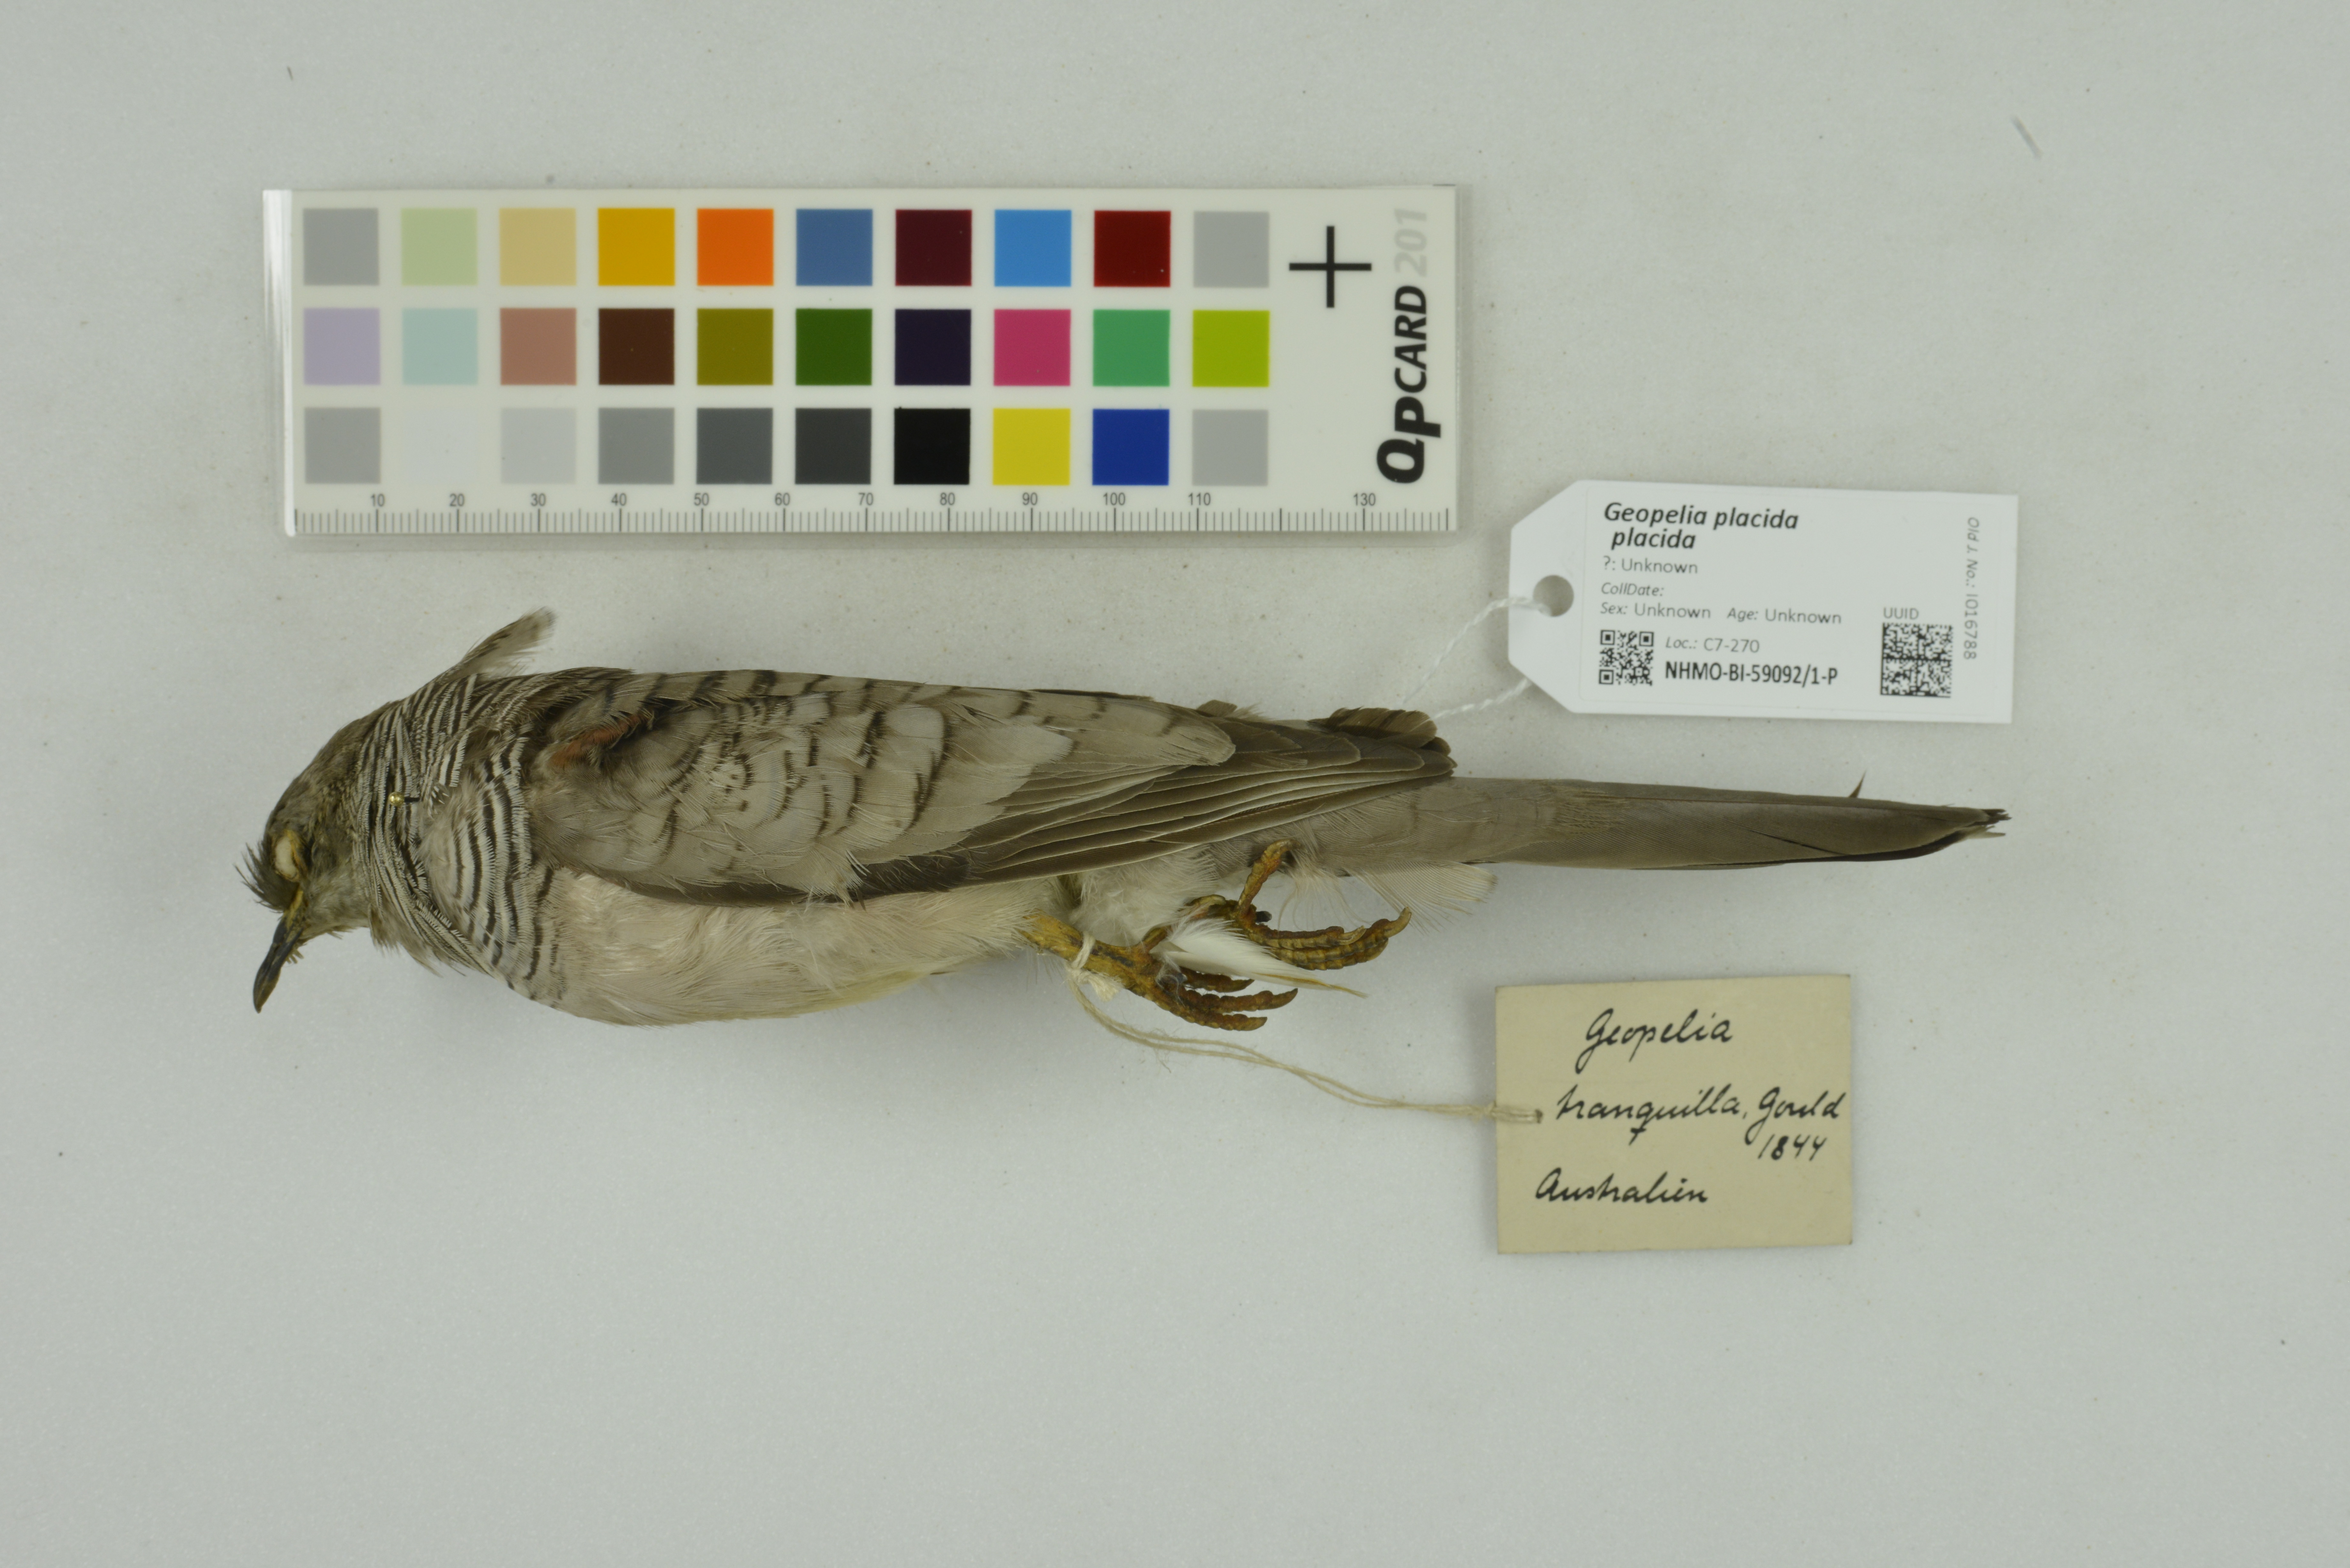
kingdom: Animalia
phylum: Chordata
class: Aves
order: Columbiformes
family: Columbidae
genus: Geopelia
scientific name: Geopelia placida
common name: Peaceful dove
